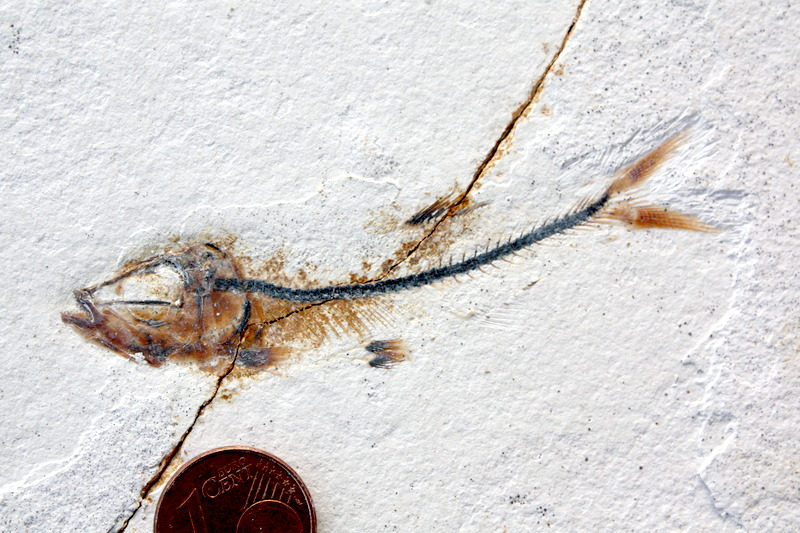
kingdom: Animalia
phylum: Chordata
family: Ascalaboidae
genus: Ebertichthys
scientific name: Ebertichthys ettlingensis
